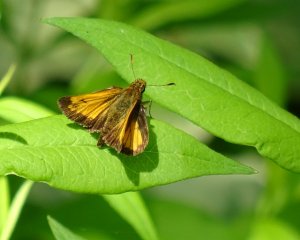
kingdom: Animalia
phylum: Arthropoda
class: Insecta
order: Lepidoptera
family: Hesperiidae
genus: Lon
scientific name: Lon hobomok
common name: Hobomok Skipper
